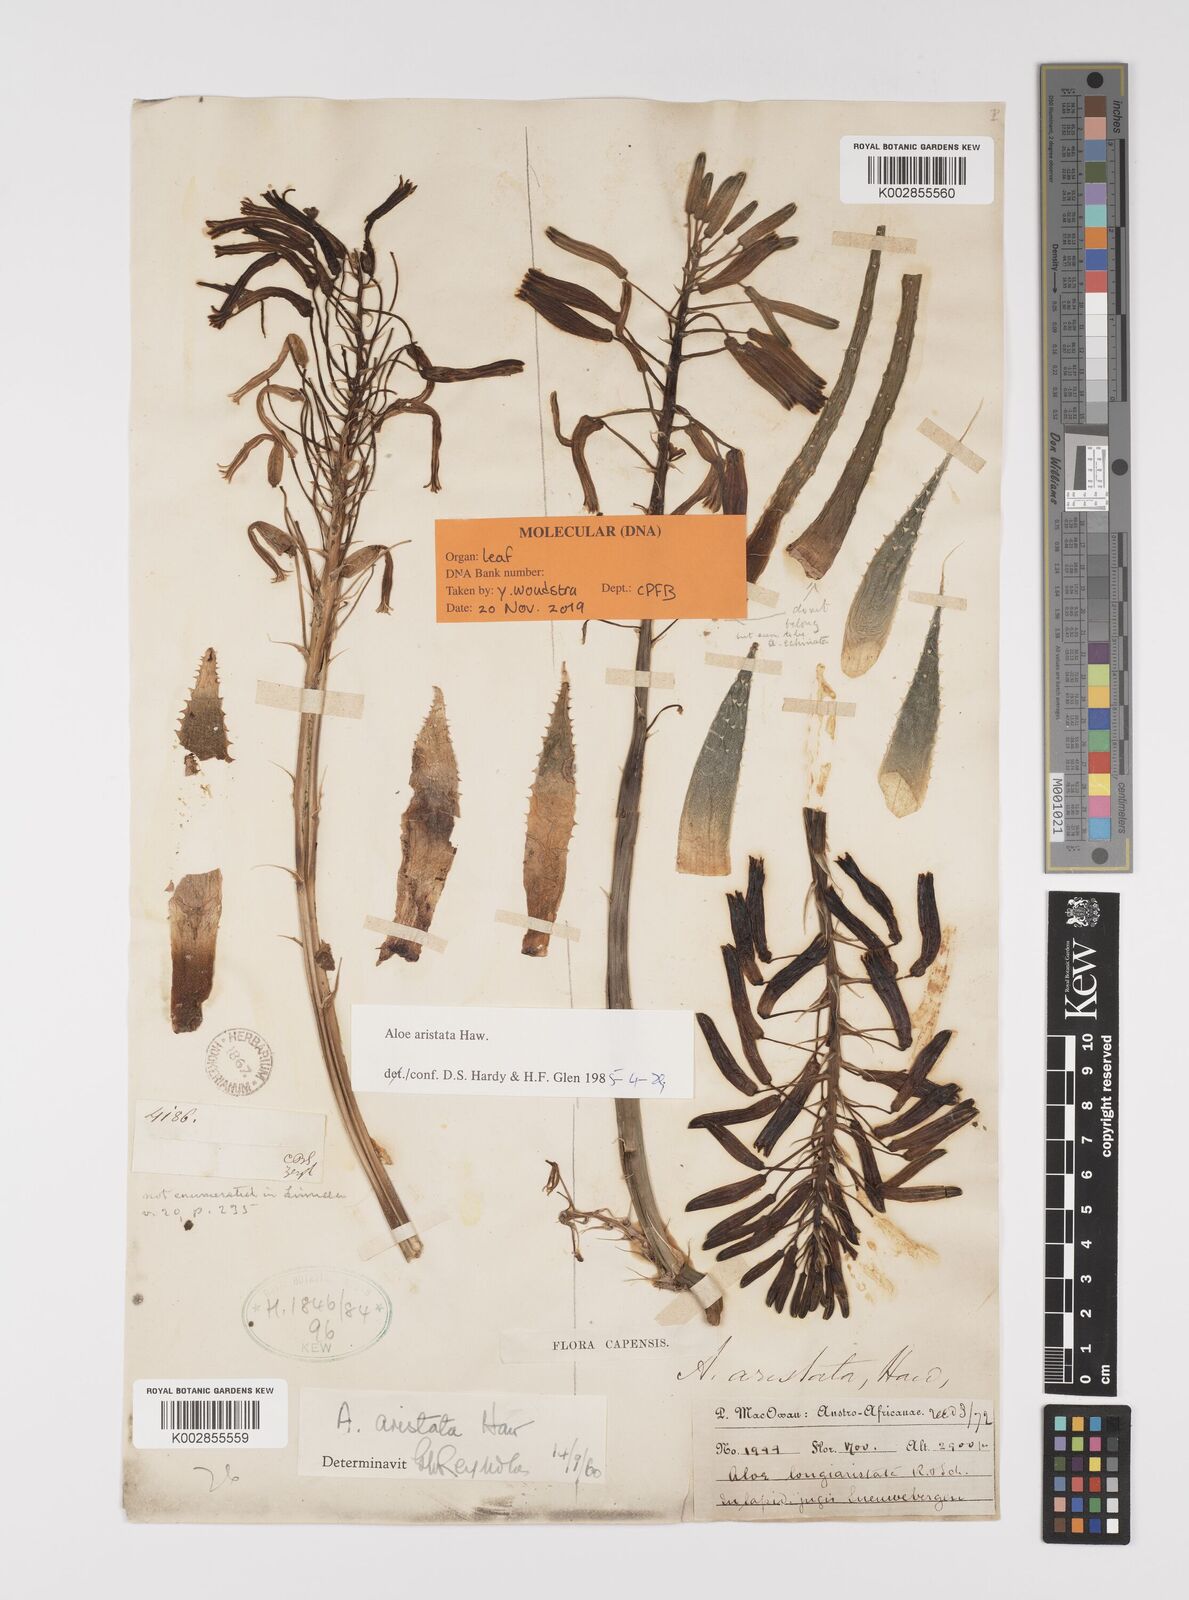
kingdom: Plantae
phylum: Tracheophyta
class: Liliopsida
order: Asparagales
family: Asphodelaceae
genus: Aristaloe
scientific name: Aristaloe aristata
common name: Guinea-fowl aloe
